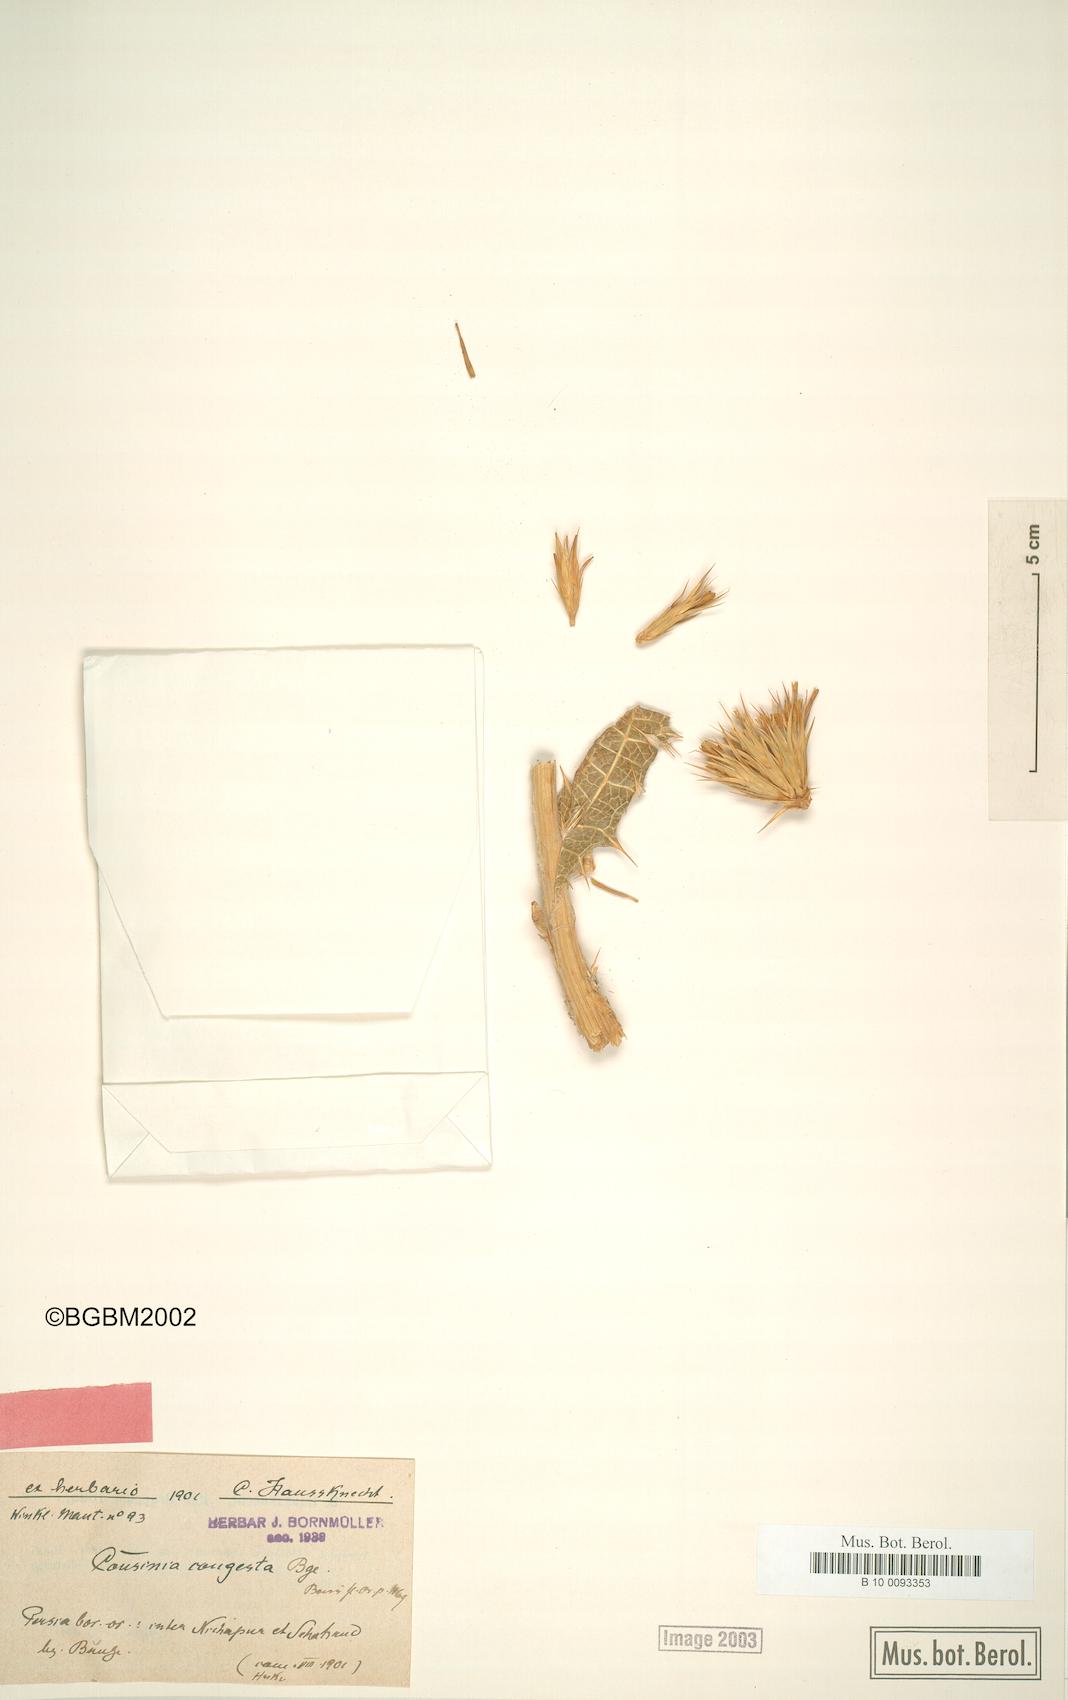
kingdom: Plantae
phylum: Tracheophyta
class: Magnoliopsida
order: Asterales
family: Asteraceae
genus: Cousinia
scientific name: Cousinia congesta
